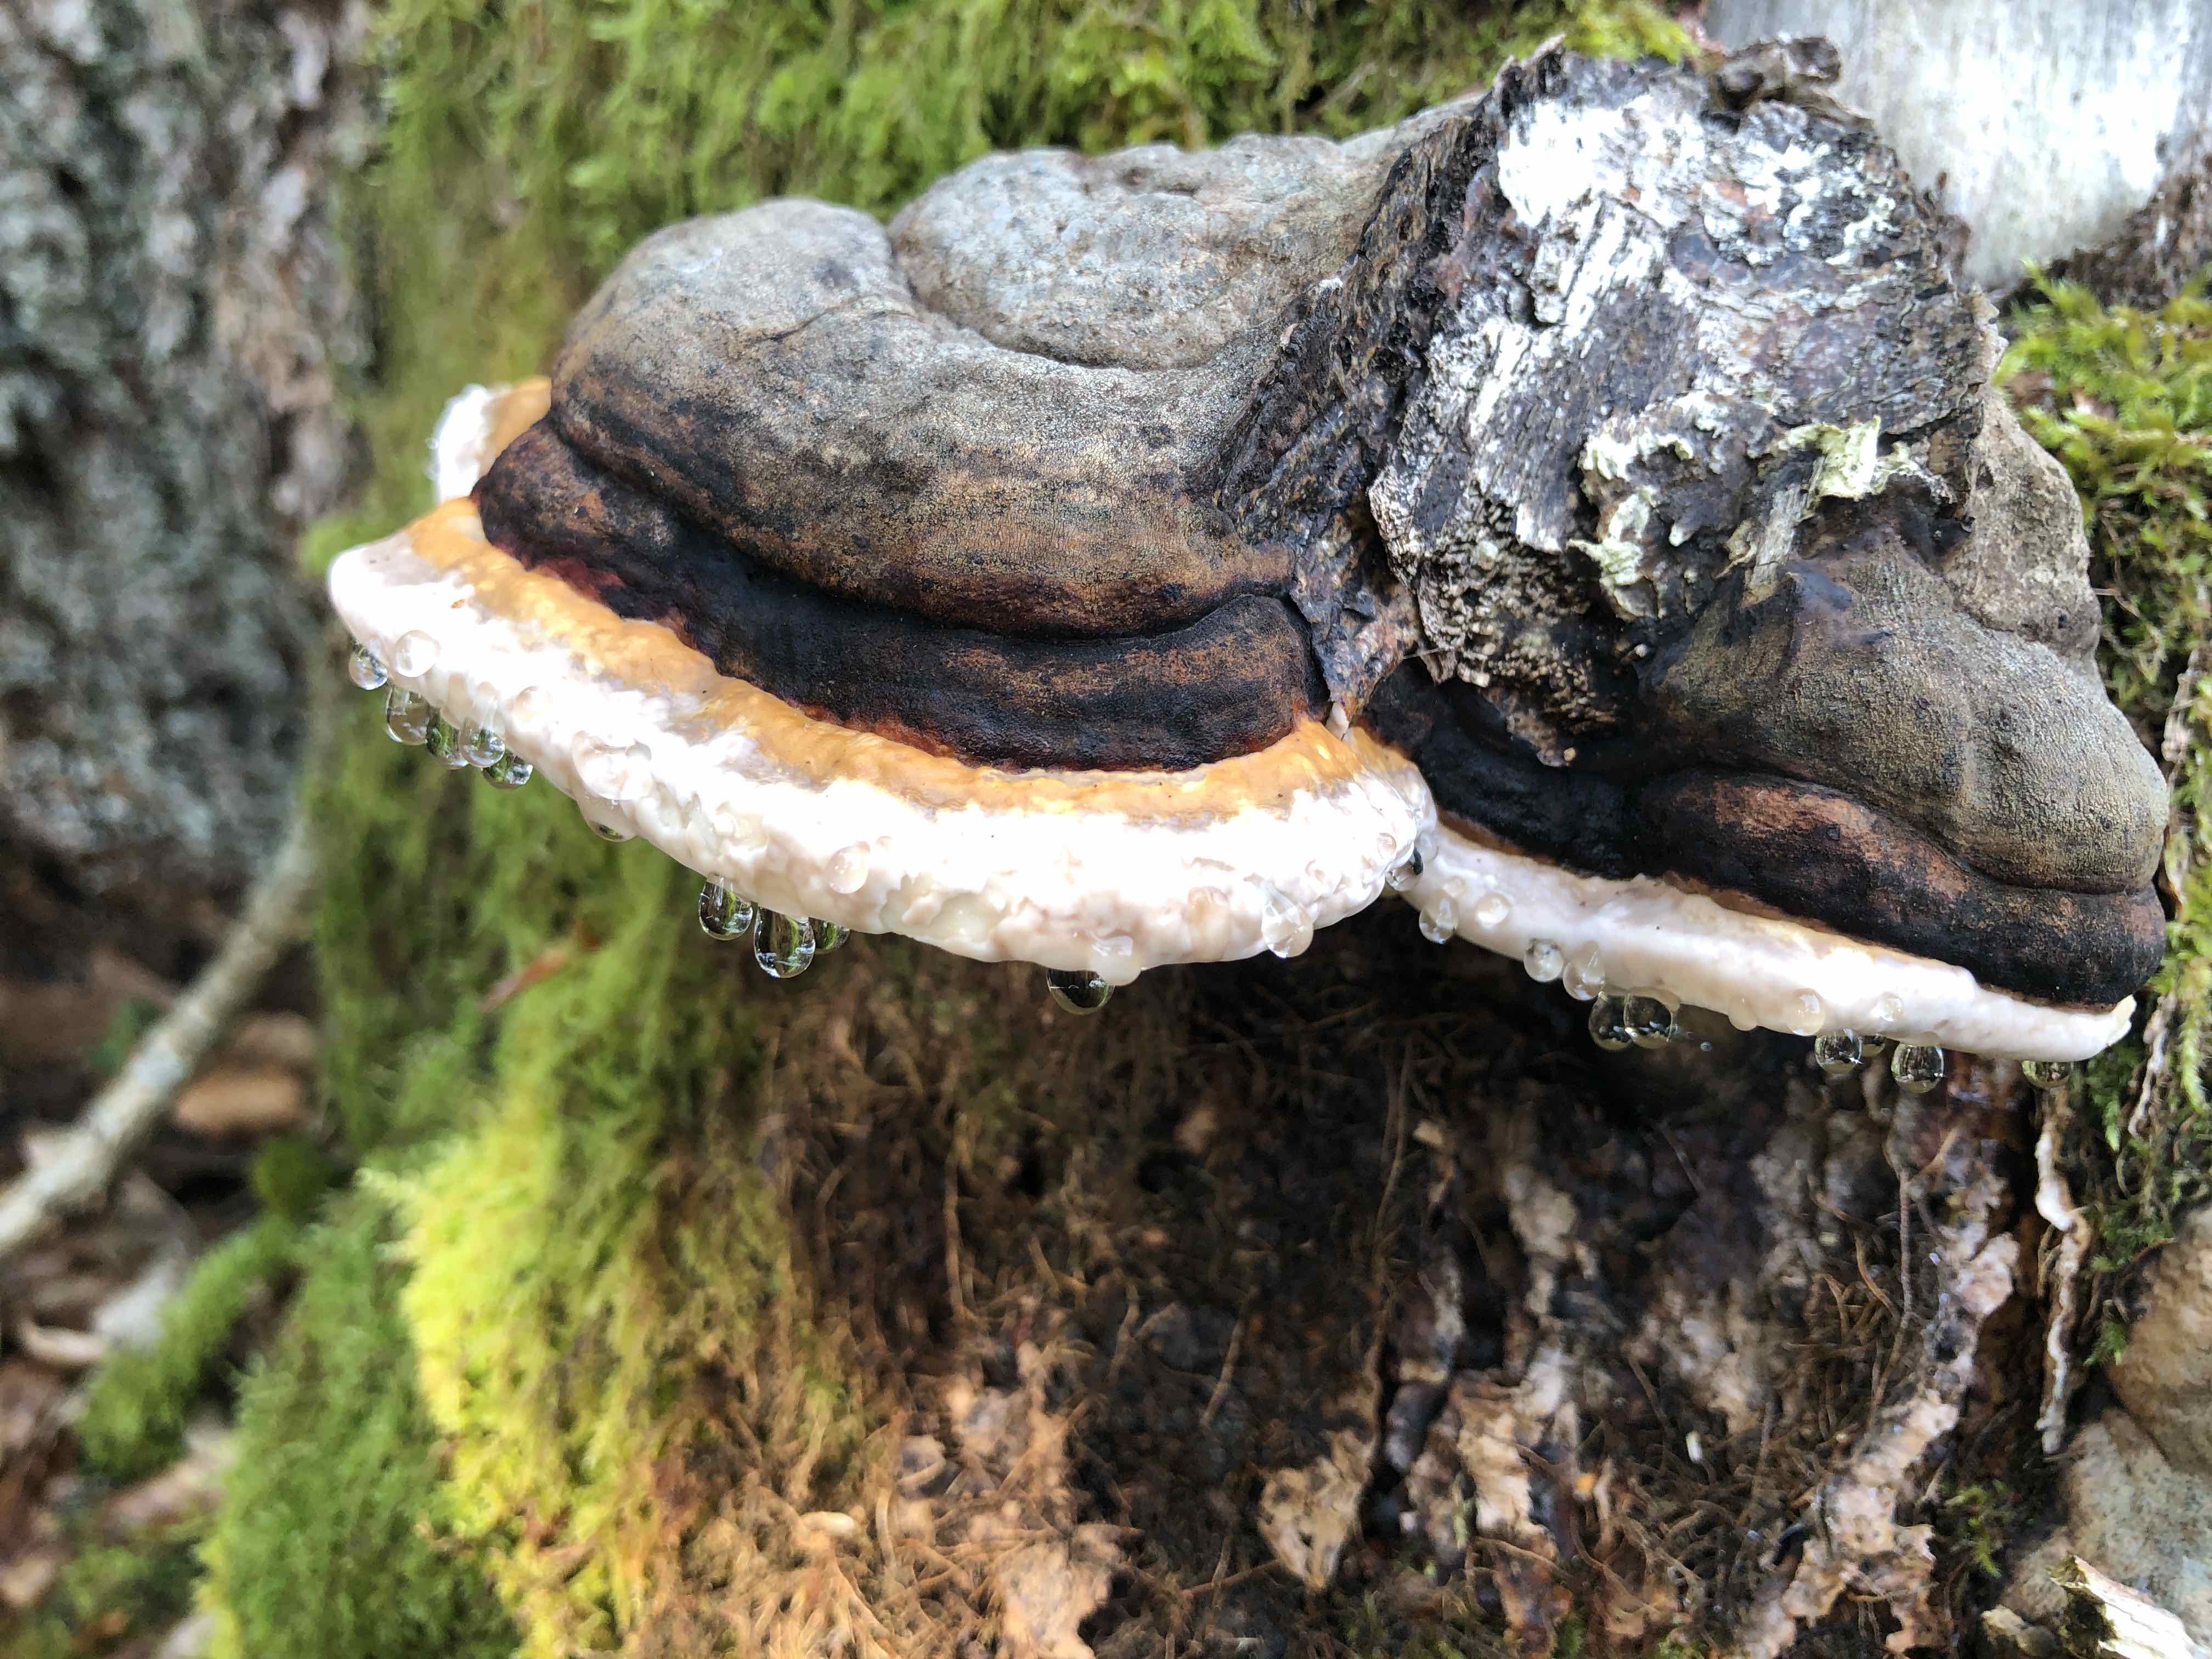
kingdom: Fungi
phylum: Basidiomycota
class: Agaricomycetes
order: Polyporales
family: Fomitopsidaceae
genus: Fomitopsis
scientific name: Fomitopsis pinicola
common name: randbæltet hovporesvamp
